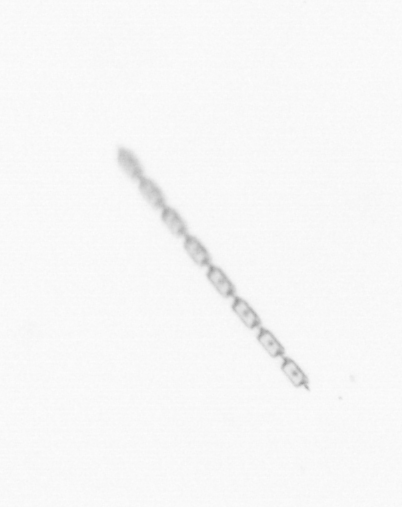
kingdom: Chromista
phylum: Ochrophyta
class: Bacillariophyceae
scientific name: Bacillariophyceae
